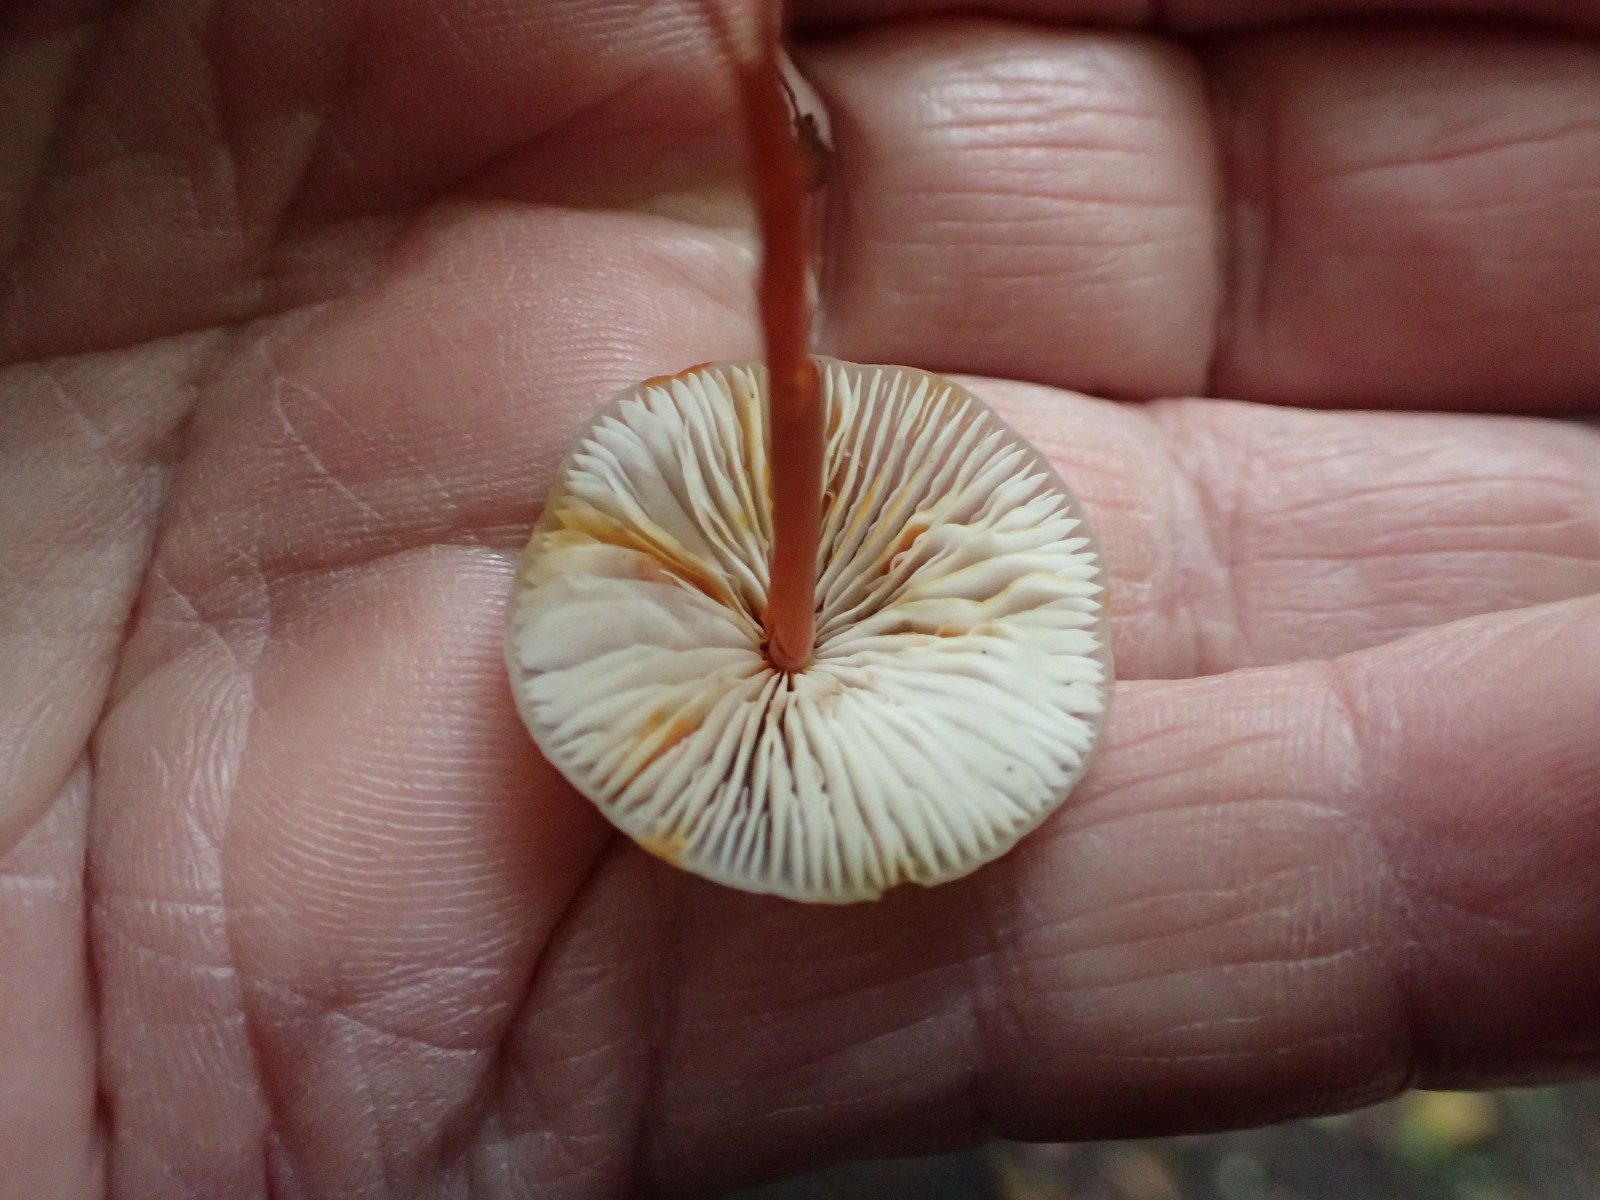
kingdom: Fungi
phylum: Basidiomycota
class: Agaricomycetes
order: Agaricales
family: Mycenaceae
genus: Mycena
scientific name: Mycena crocata
